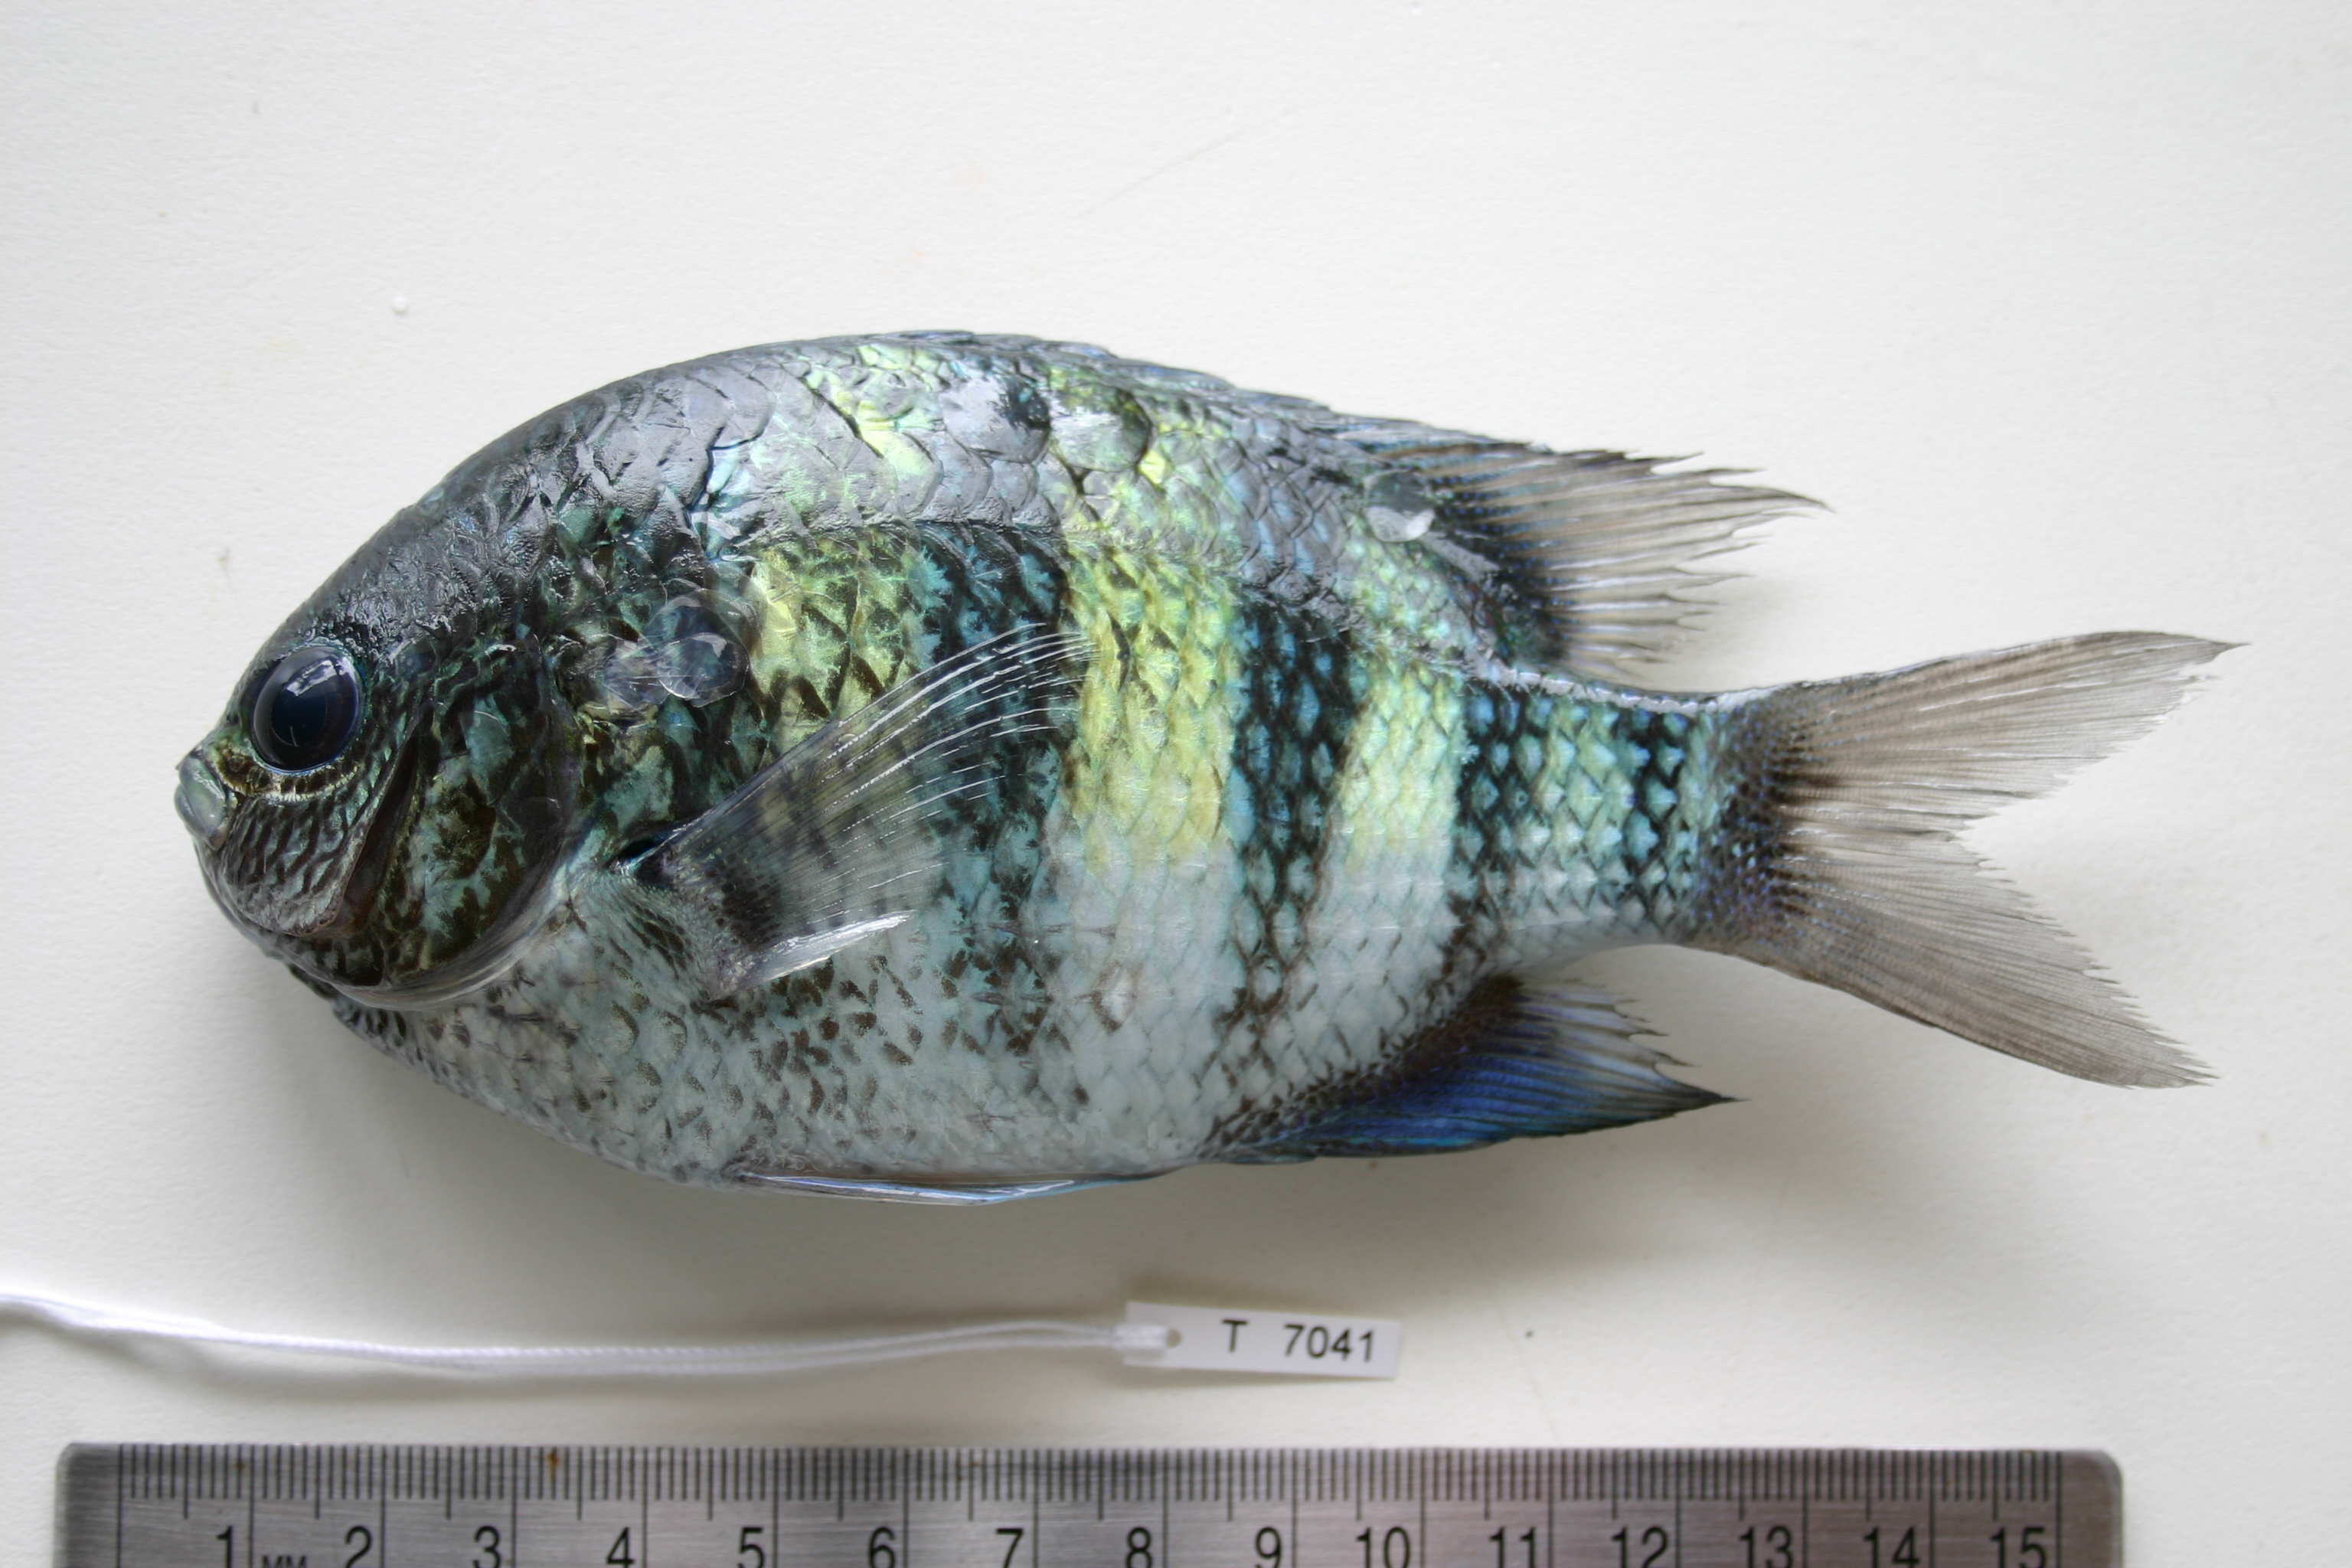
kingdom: Animalia
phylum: Chordata
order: Perciformes
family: Pomacentridae
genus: Abudefduf
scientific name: Abudefduf vaigiensis
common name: Indo-pacific sergeant
